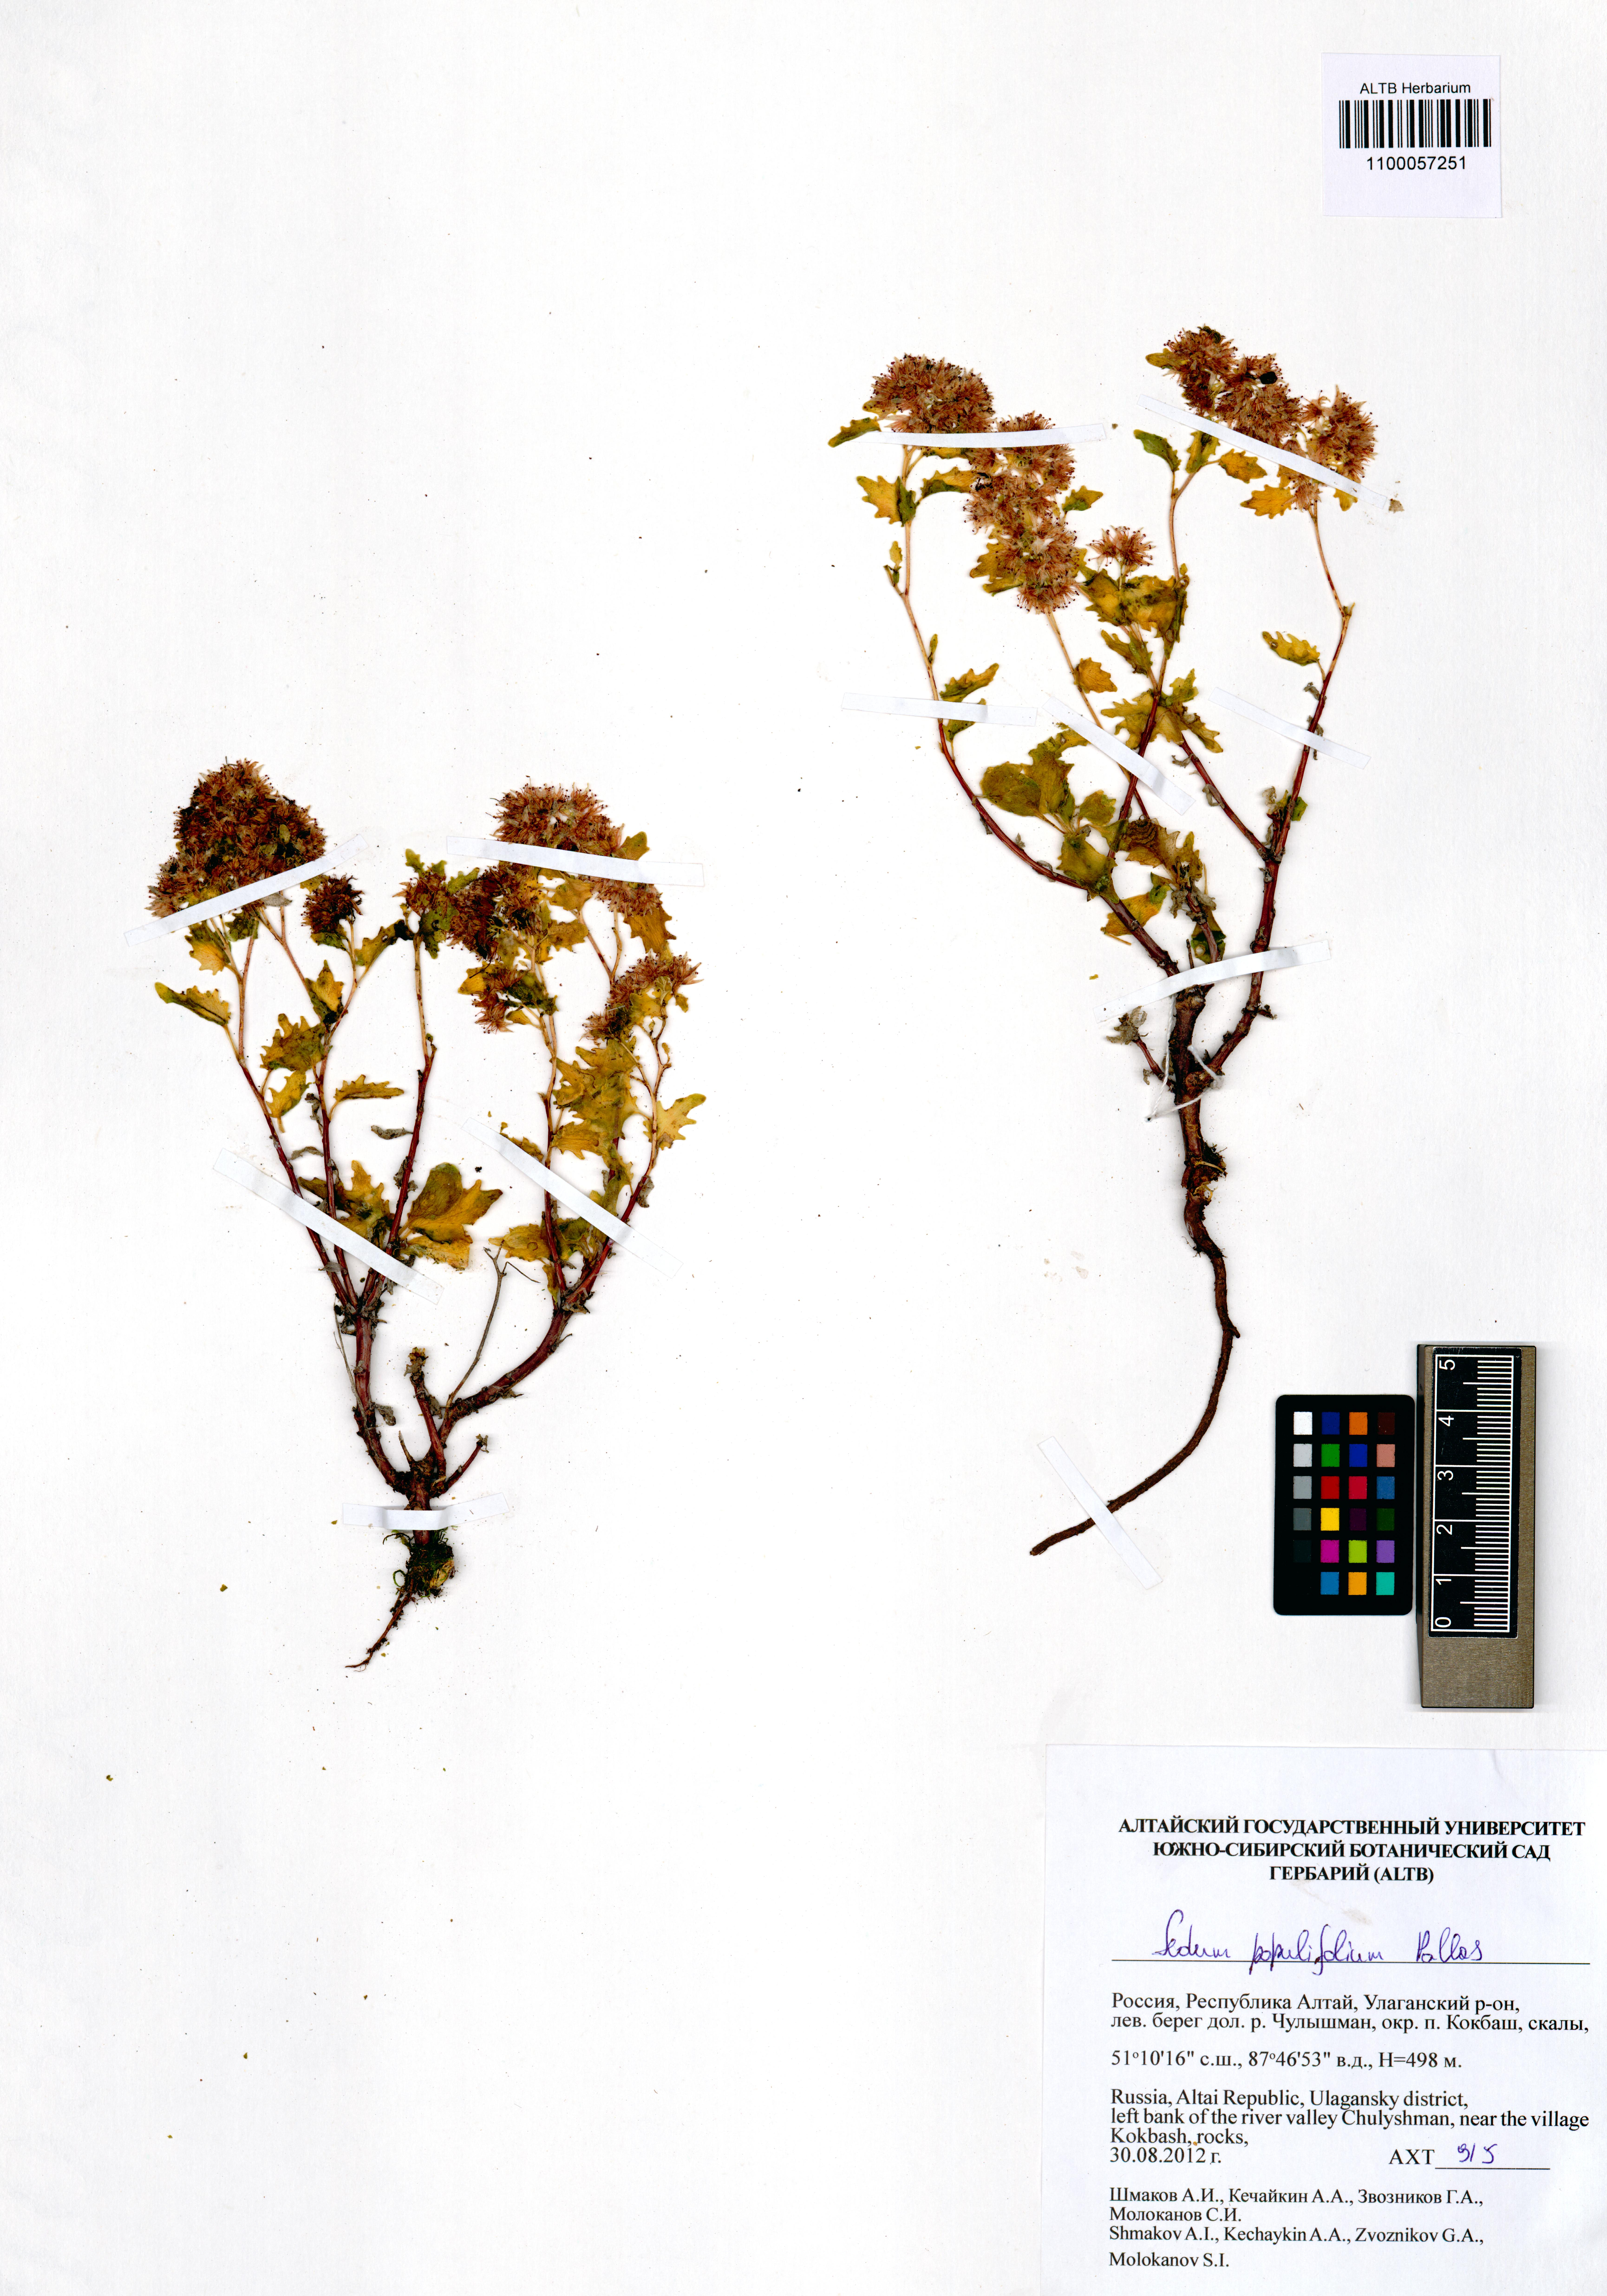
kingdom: Plantae
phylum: Tracheophyta
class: Magnoliopsida
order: Saxifragales
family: Crassulaceae
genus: Hylotelephium
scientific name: Hylotelephium populifolium
